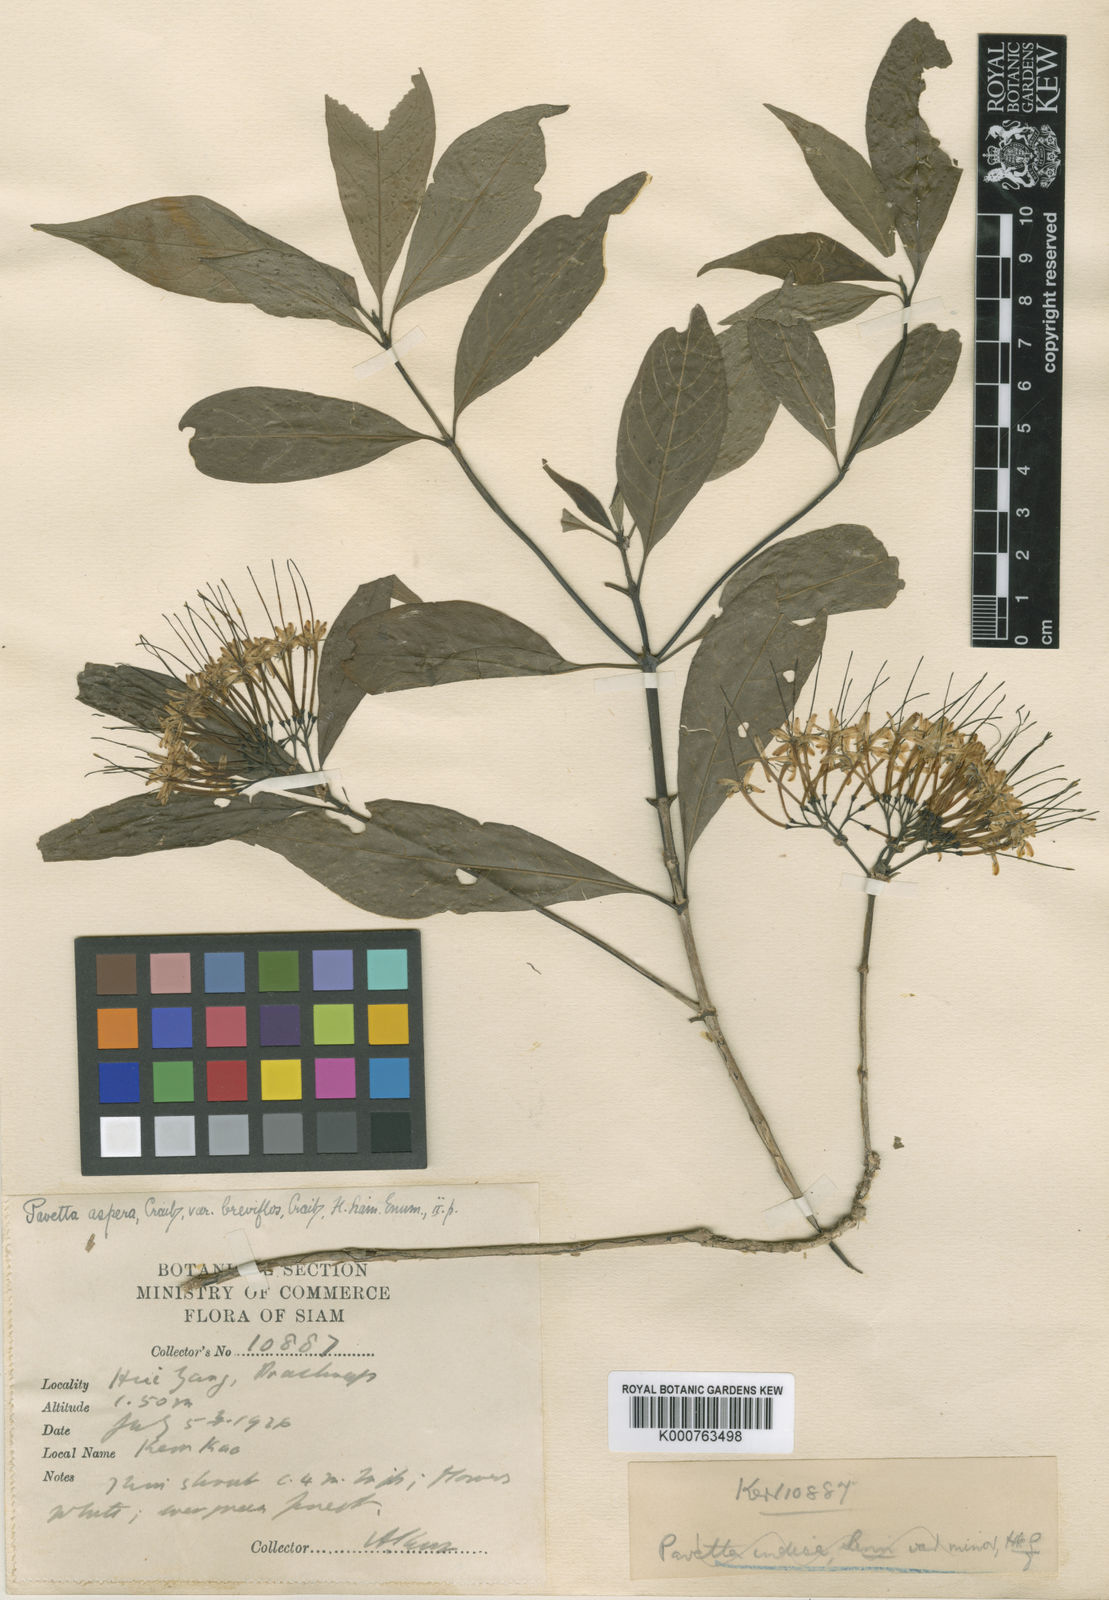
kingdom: Plantae
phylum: Tracheophyta
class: Magnoliopsida
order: Gentianales
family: Rubiaceae
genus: Pavetta
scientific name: Pavetta aspera
